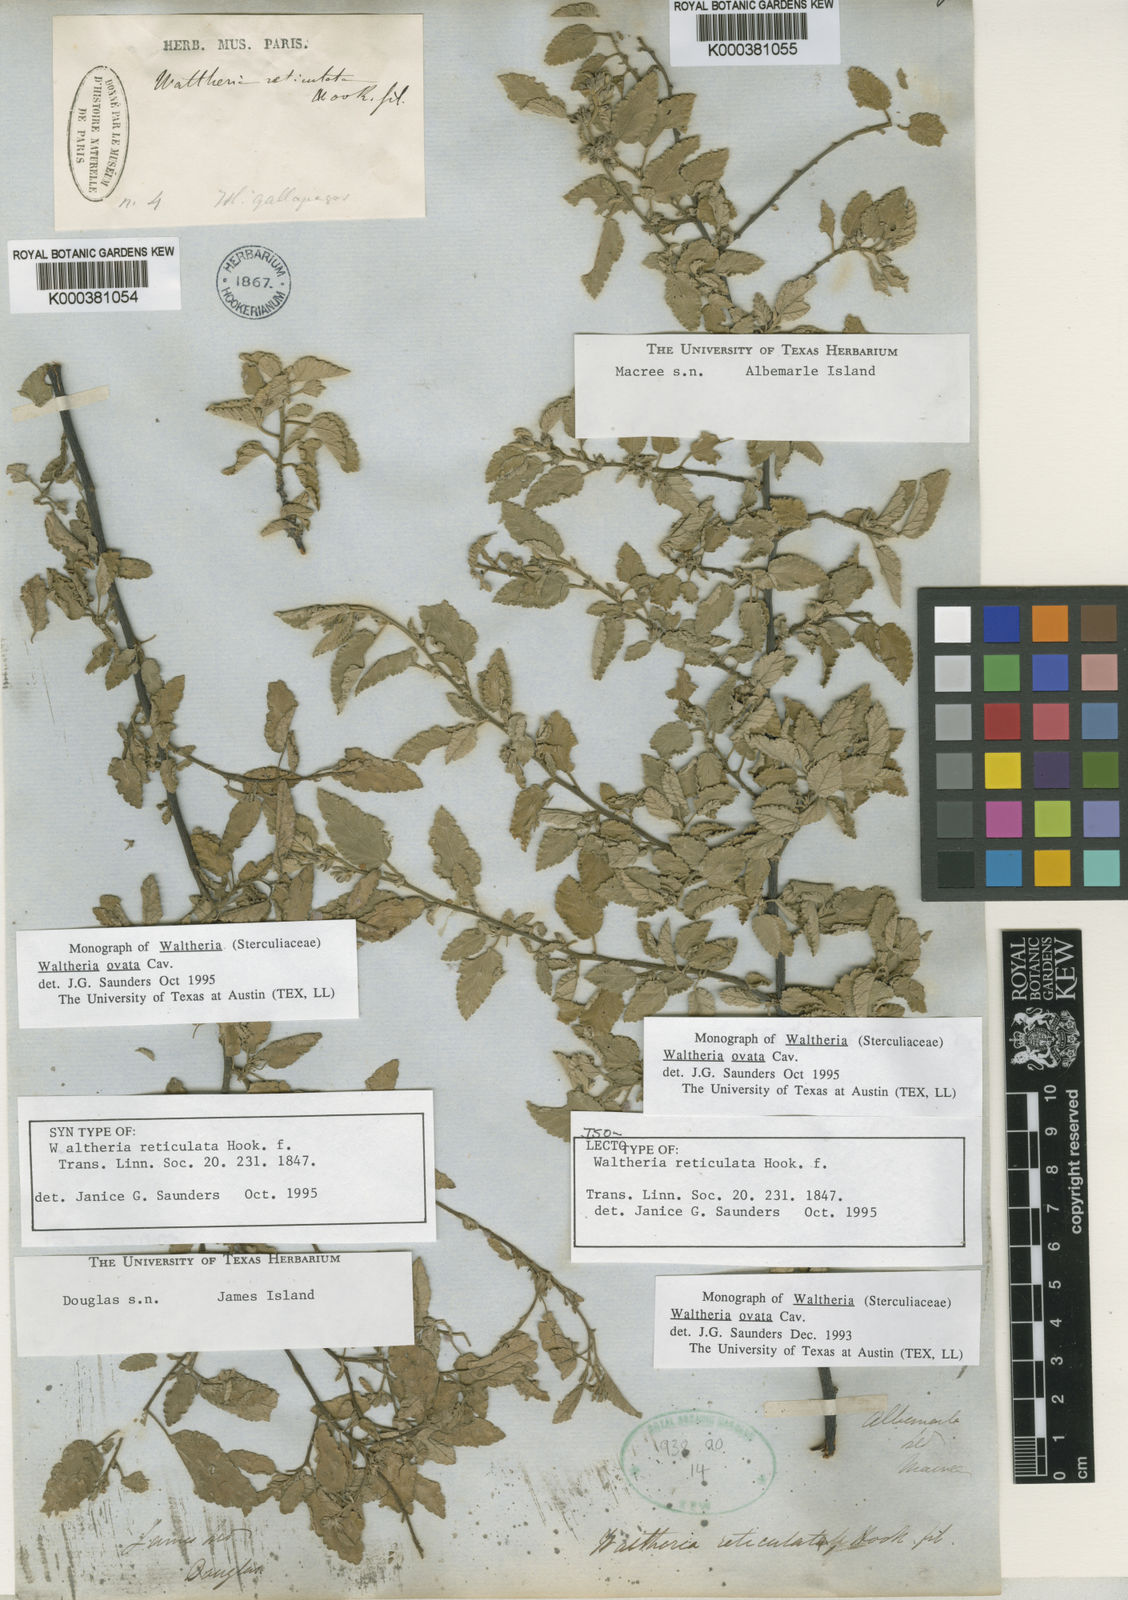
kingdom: Plantae
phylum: Tracheophyta
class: Magnoliopsida
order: Malvales
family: Malvaceae
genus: Waltheria
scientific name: Waltheria ovata
